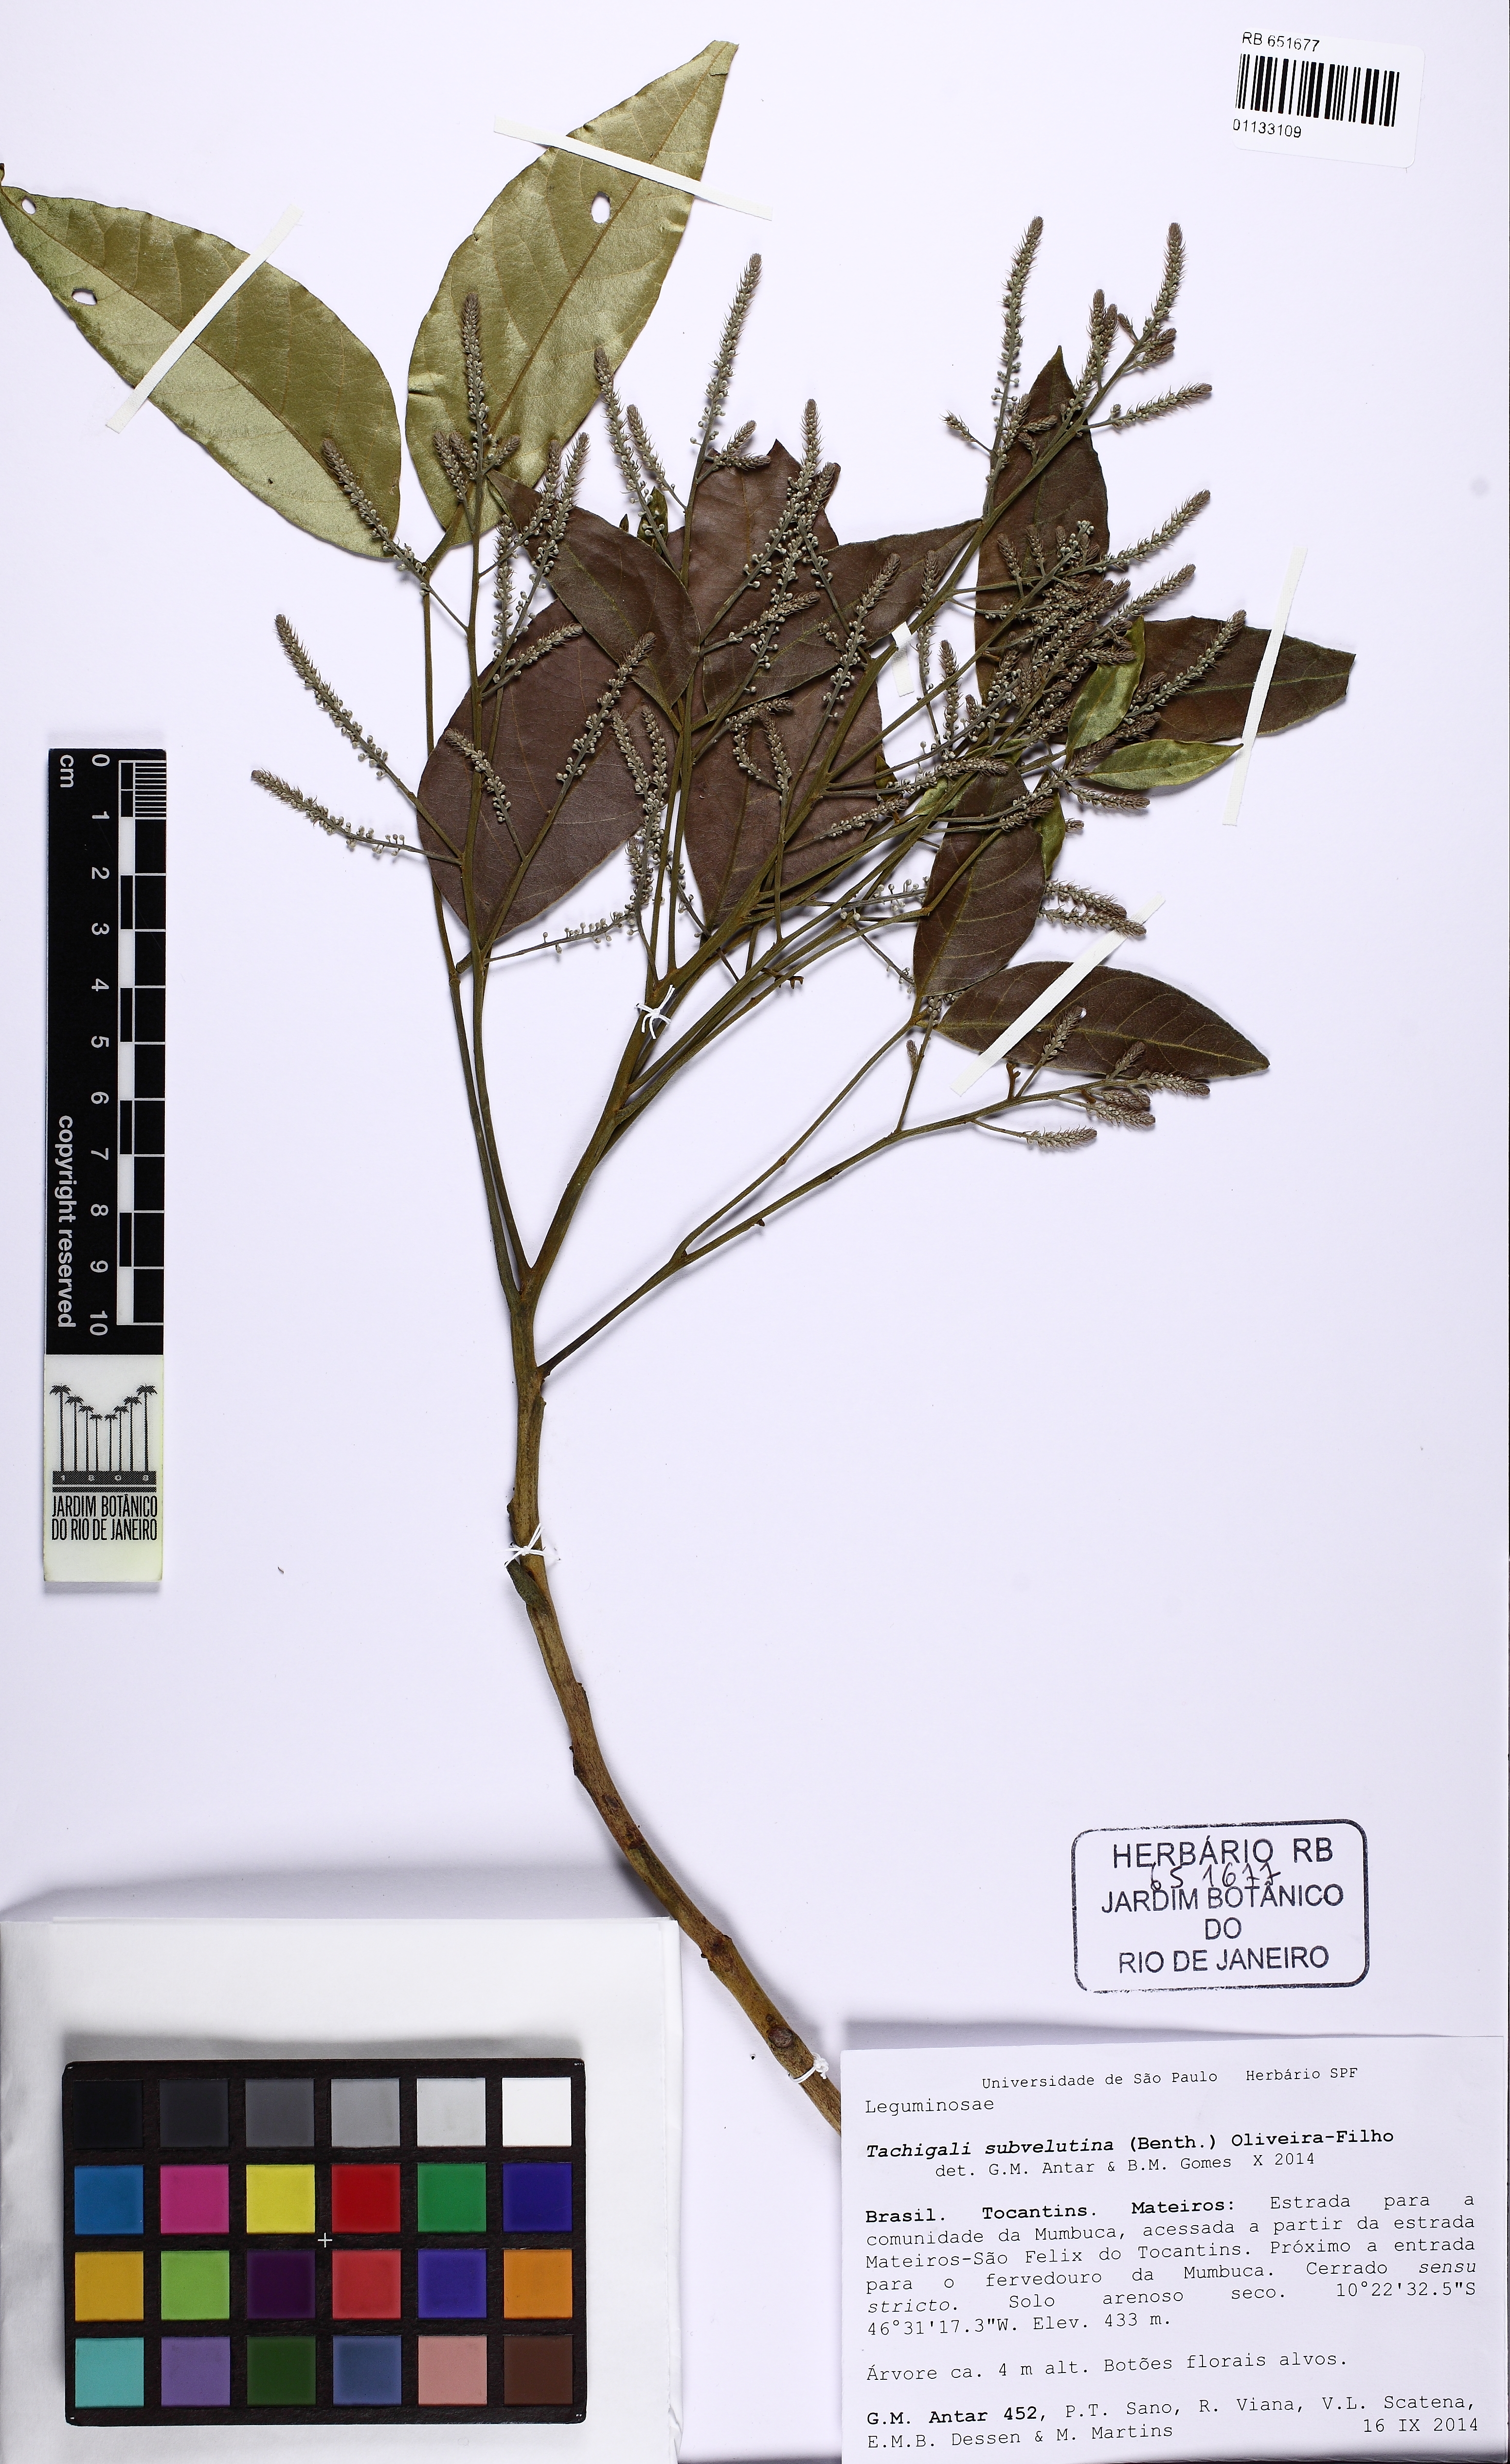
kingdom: Plantae
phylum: Tracheophyta
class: Magnoliopsida
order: Fabales
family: Fabaceae
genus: Tachigali
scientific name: Tachigali subvelutina
